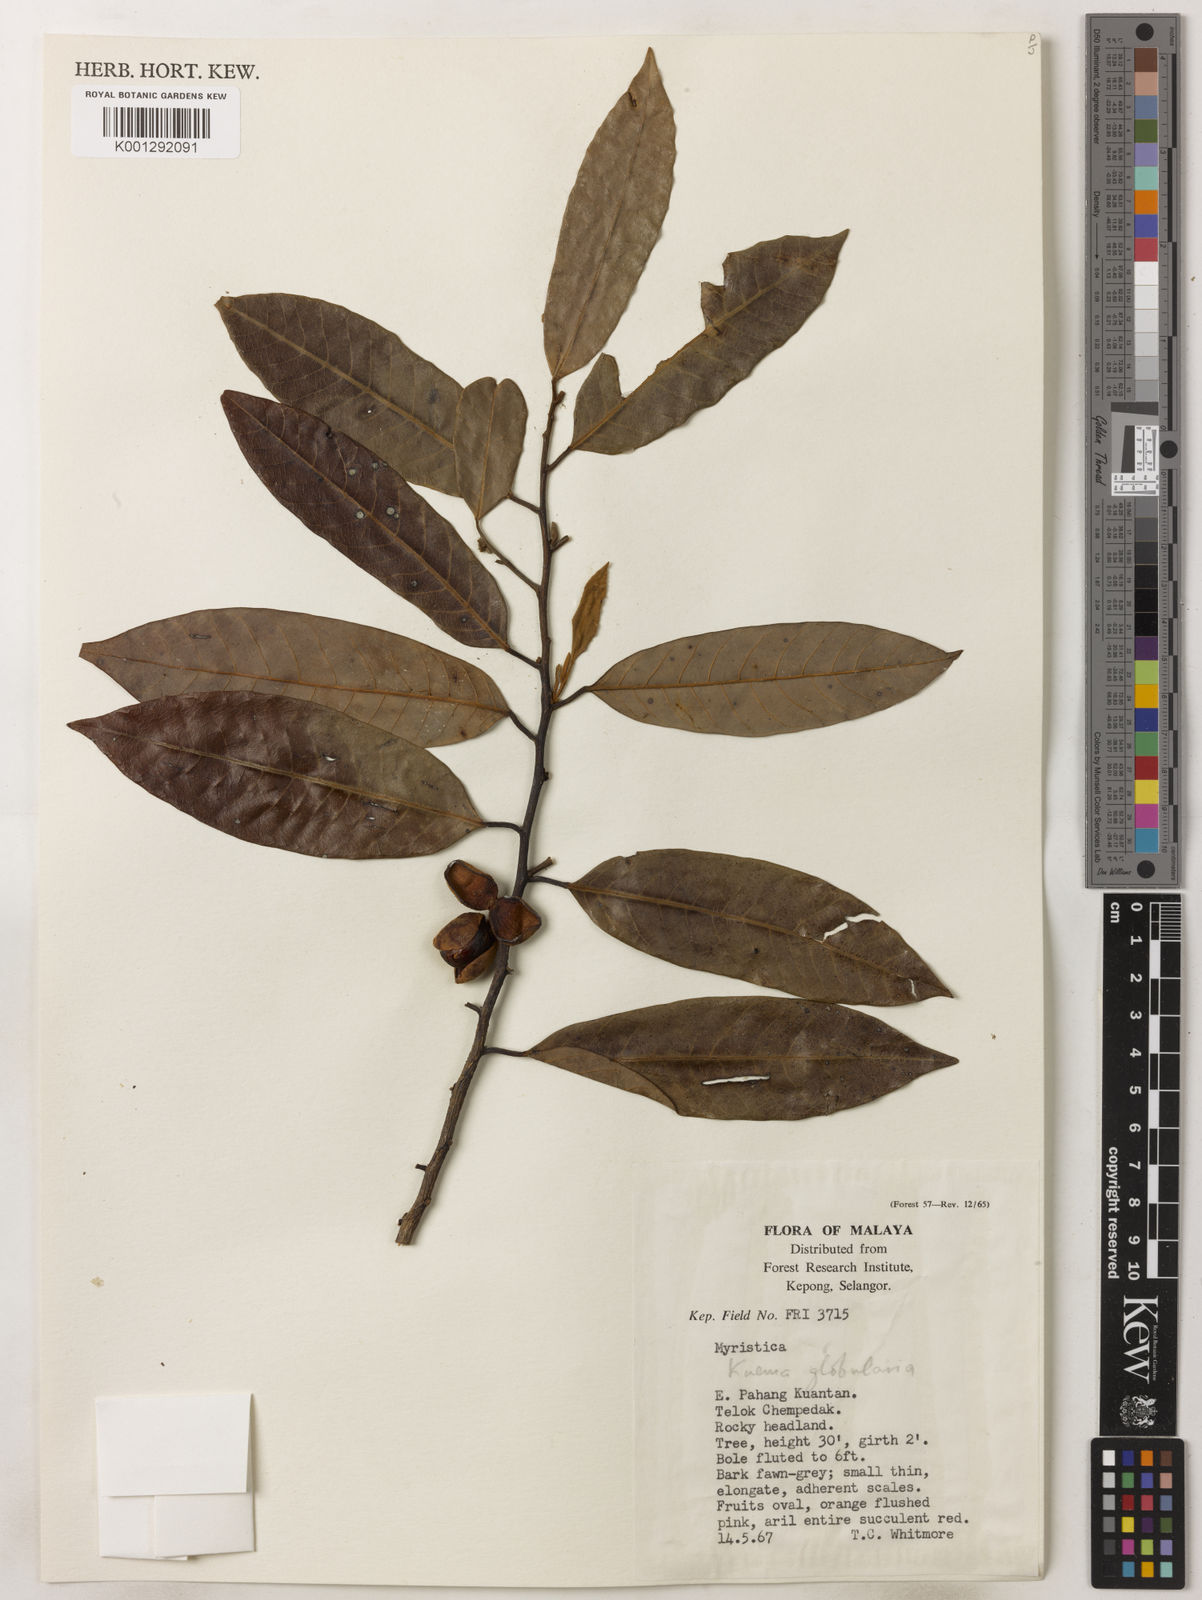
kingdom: Plantae
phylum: Tracheophyta
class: Magnoliopsida
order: Magnoliales
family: Myristicaceae
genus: Knema
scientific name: Knema globularia
